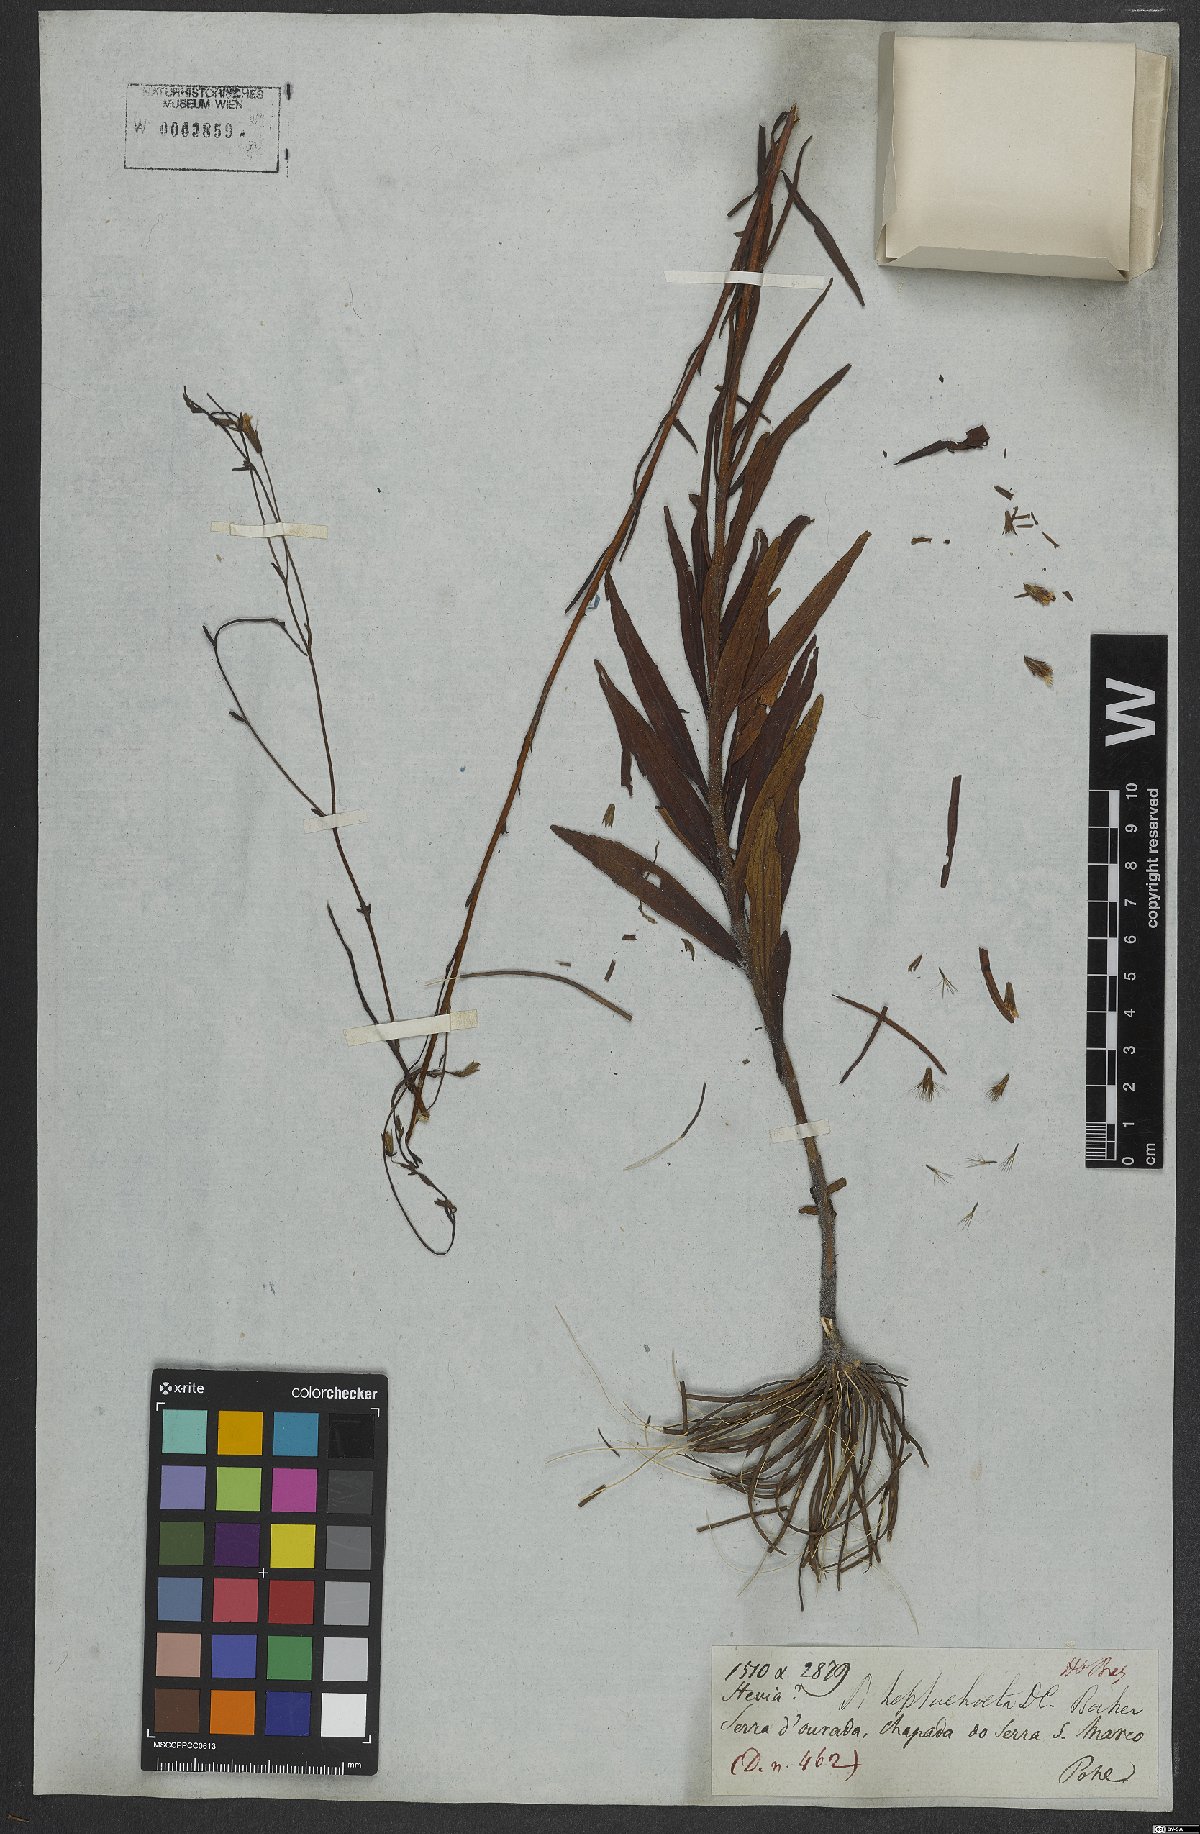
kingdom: Plantae
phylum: Tracheophyta
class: Magnoliopsida
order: Asterales
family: Asteraceae
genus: Stevia
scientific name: Stevia heptachaeta
